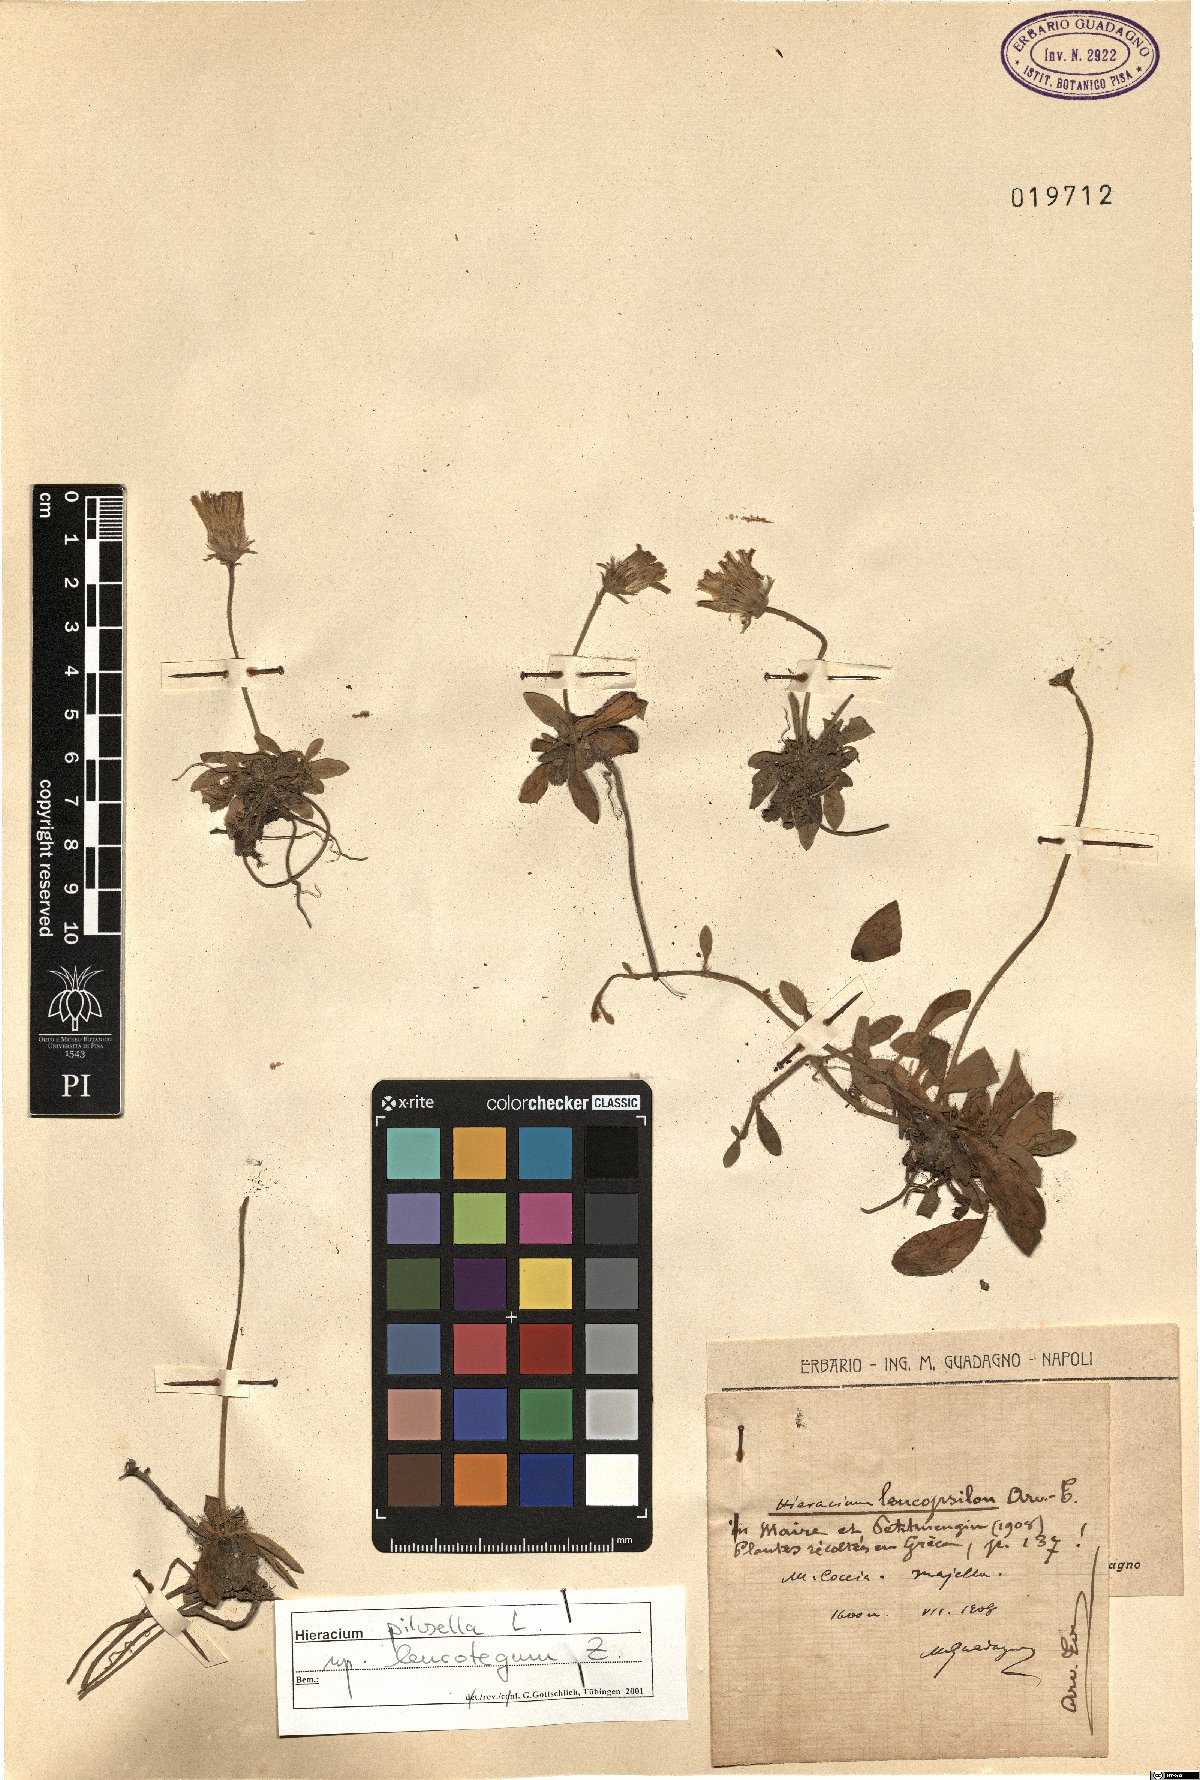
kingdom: Plantae
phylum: Tracheophyta
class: Magnoliopsida
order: Asterales
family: Asteraceae
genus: Pilosella
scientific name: Pilosella officinarum
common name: Mouse-ear hawkweed
